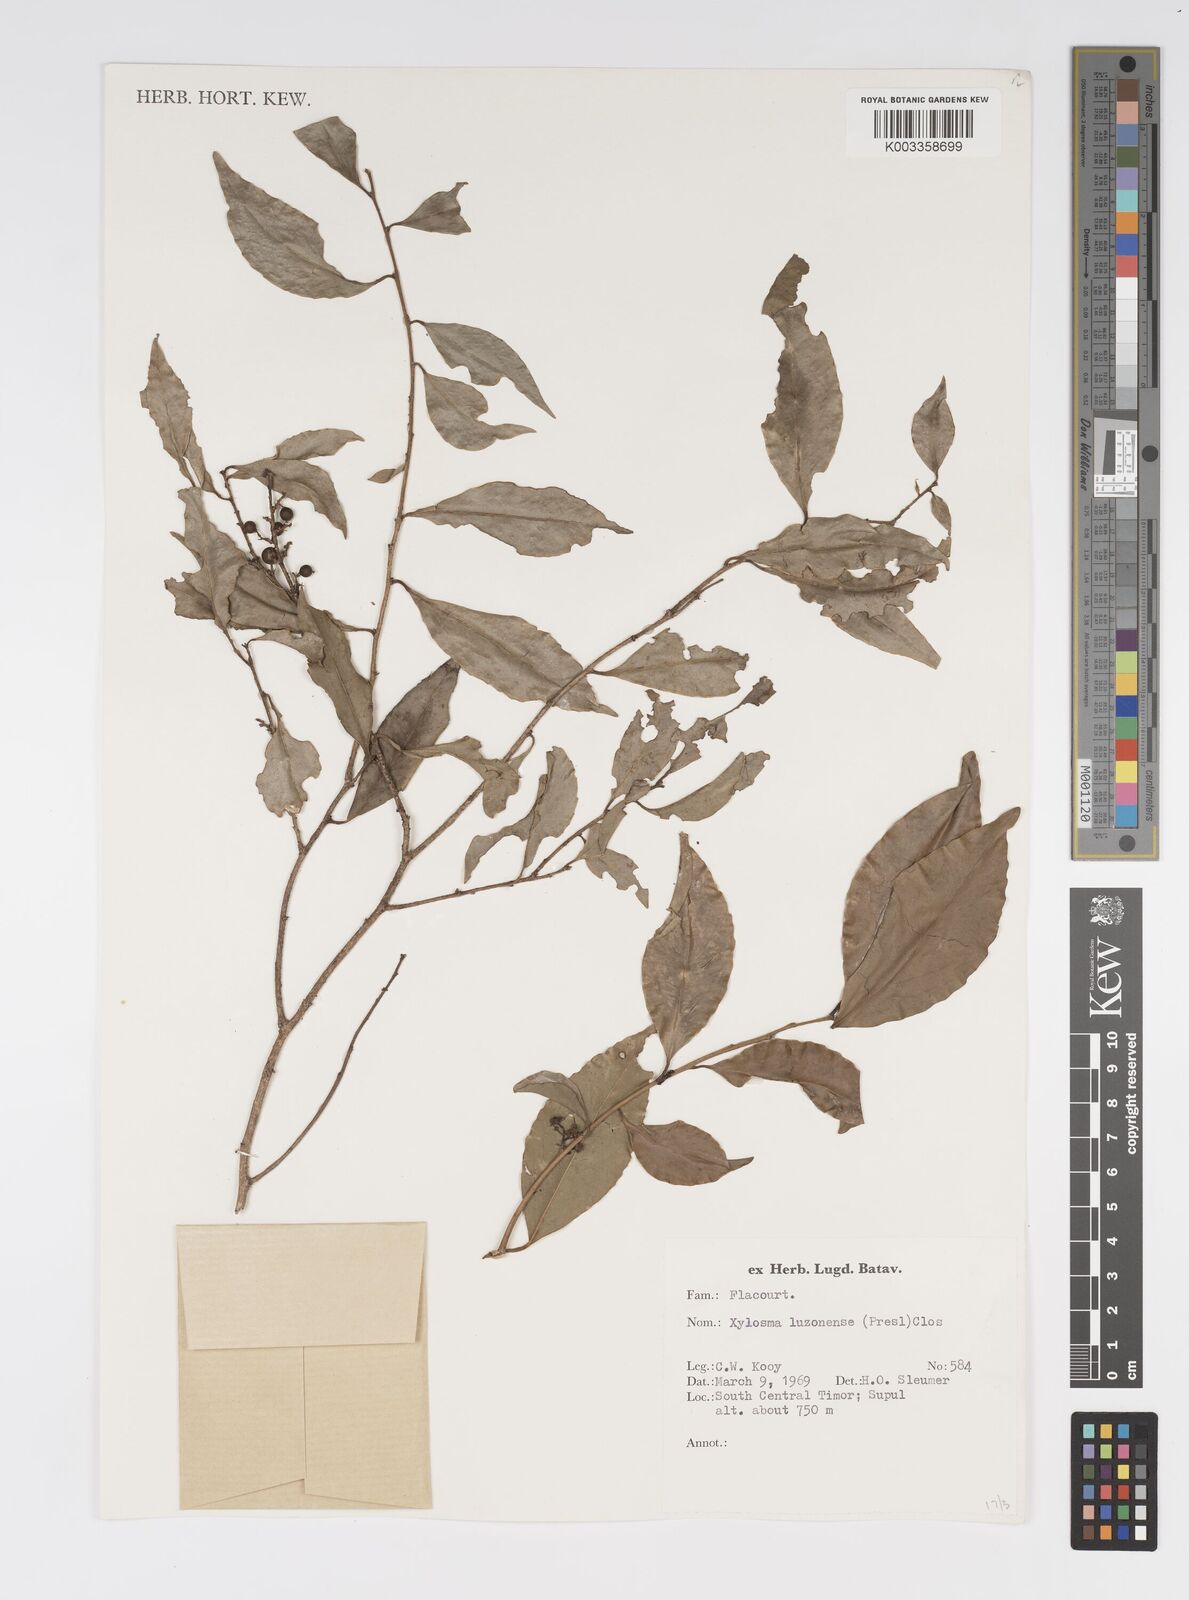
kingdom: Plantae
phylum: Tracheophyta
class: Magnoliopsida
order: Malpighiales
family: Salicaceae
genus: Xylosma
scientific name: Xylosma luzonensis
